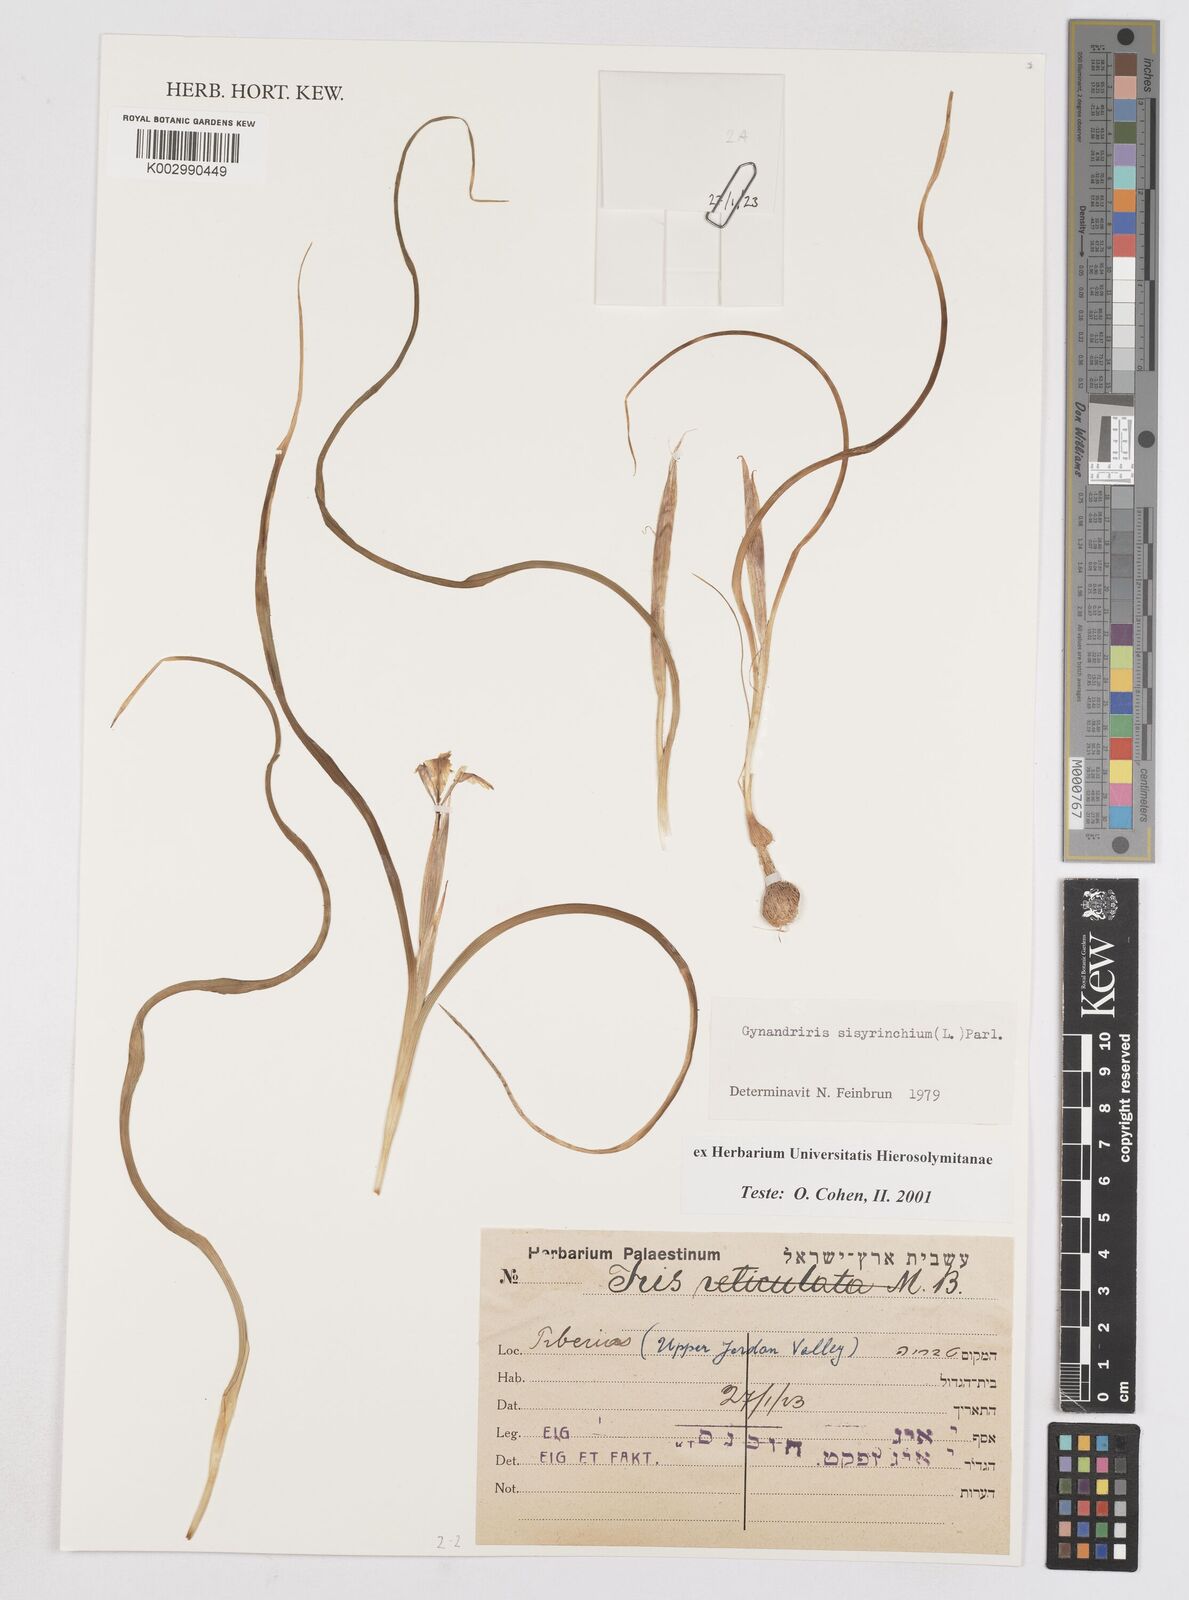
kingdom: Plantae
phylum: Tracheophyta
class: Liliopsida
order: Asparagales
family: Iridaceae
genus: Moraea
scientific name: Moraea sisyrinchium
